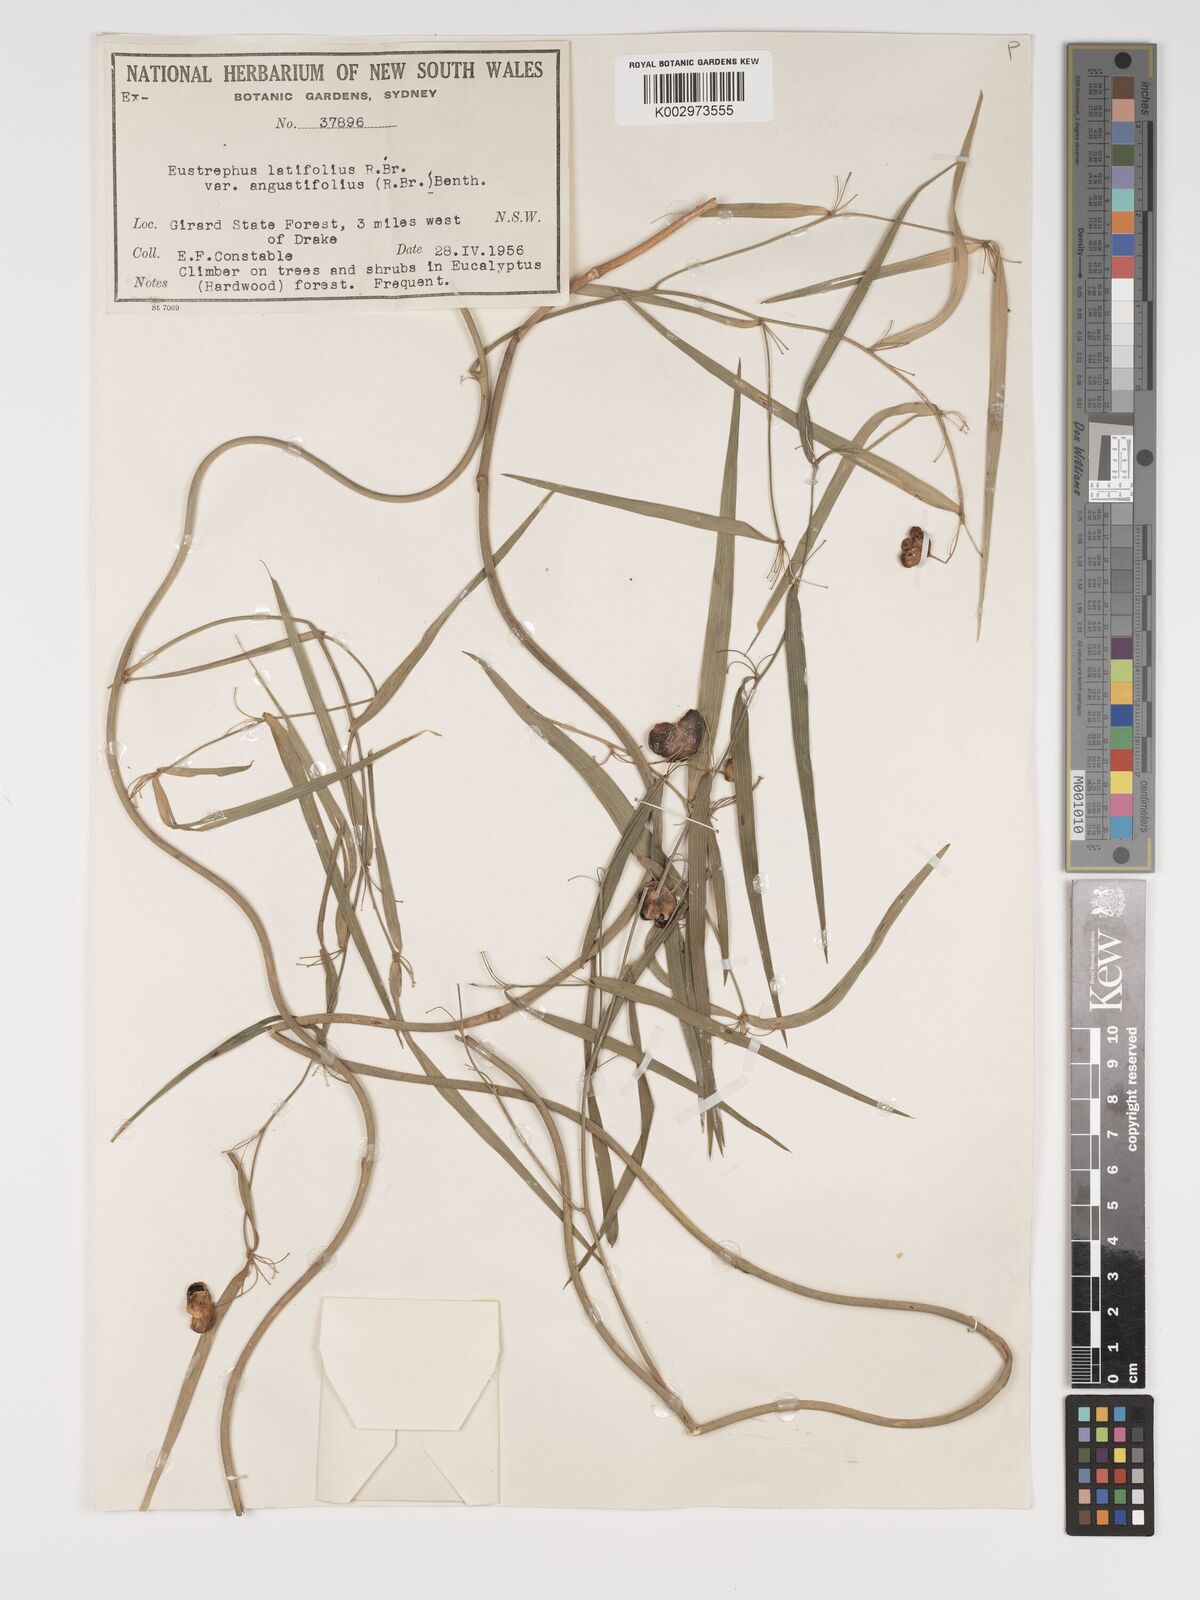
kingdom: Plantae
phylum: Tracheophyta
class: Liliopsida
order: Asparagales
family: Asparagaceae
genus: Eustrephus
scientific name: Eustrephus latifolius
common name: Orangevine
